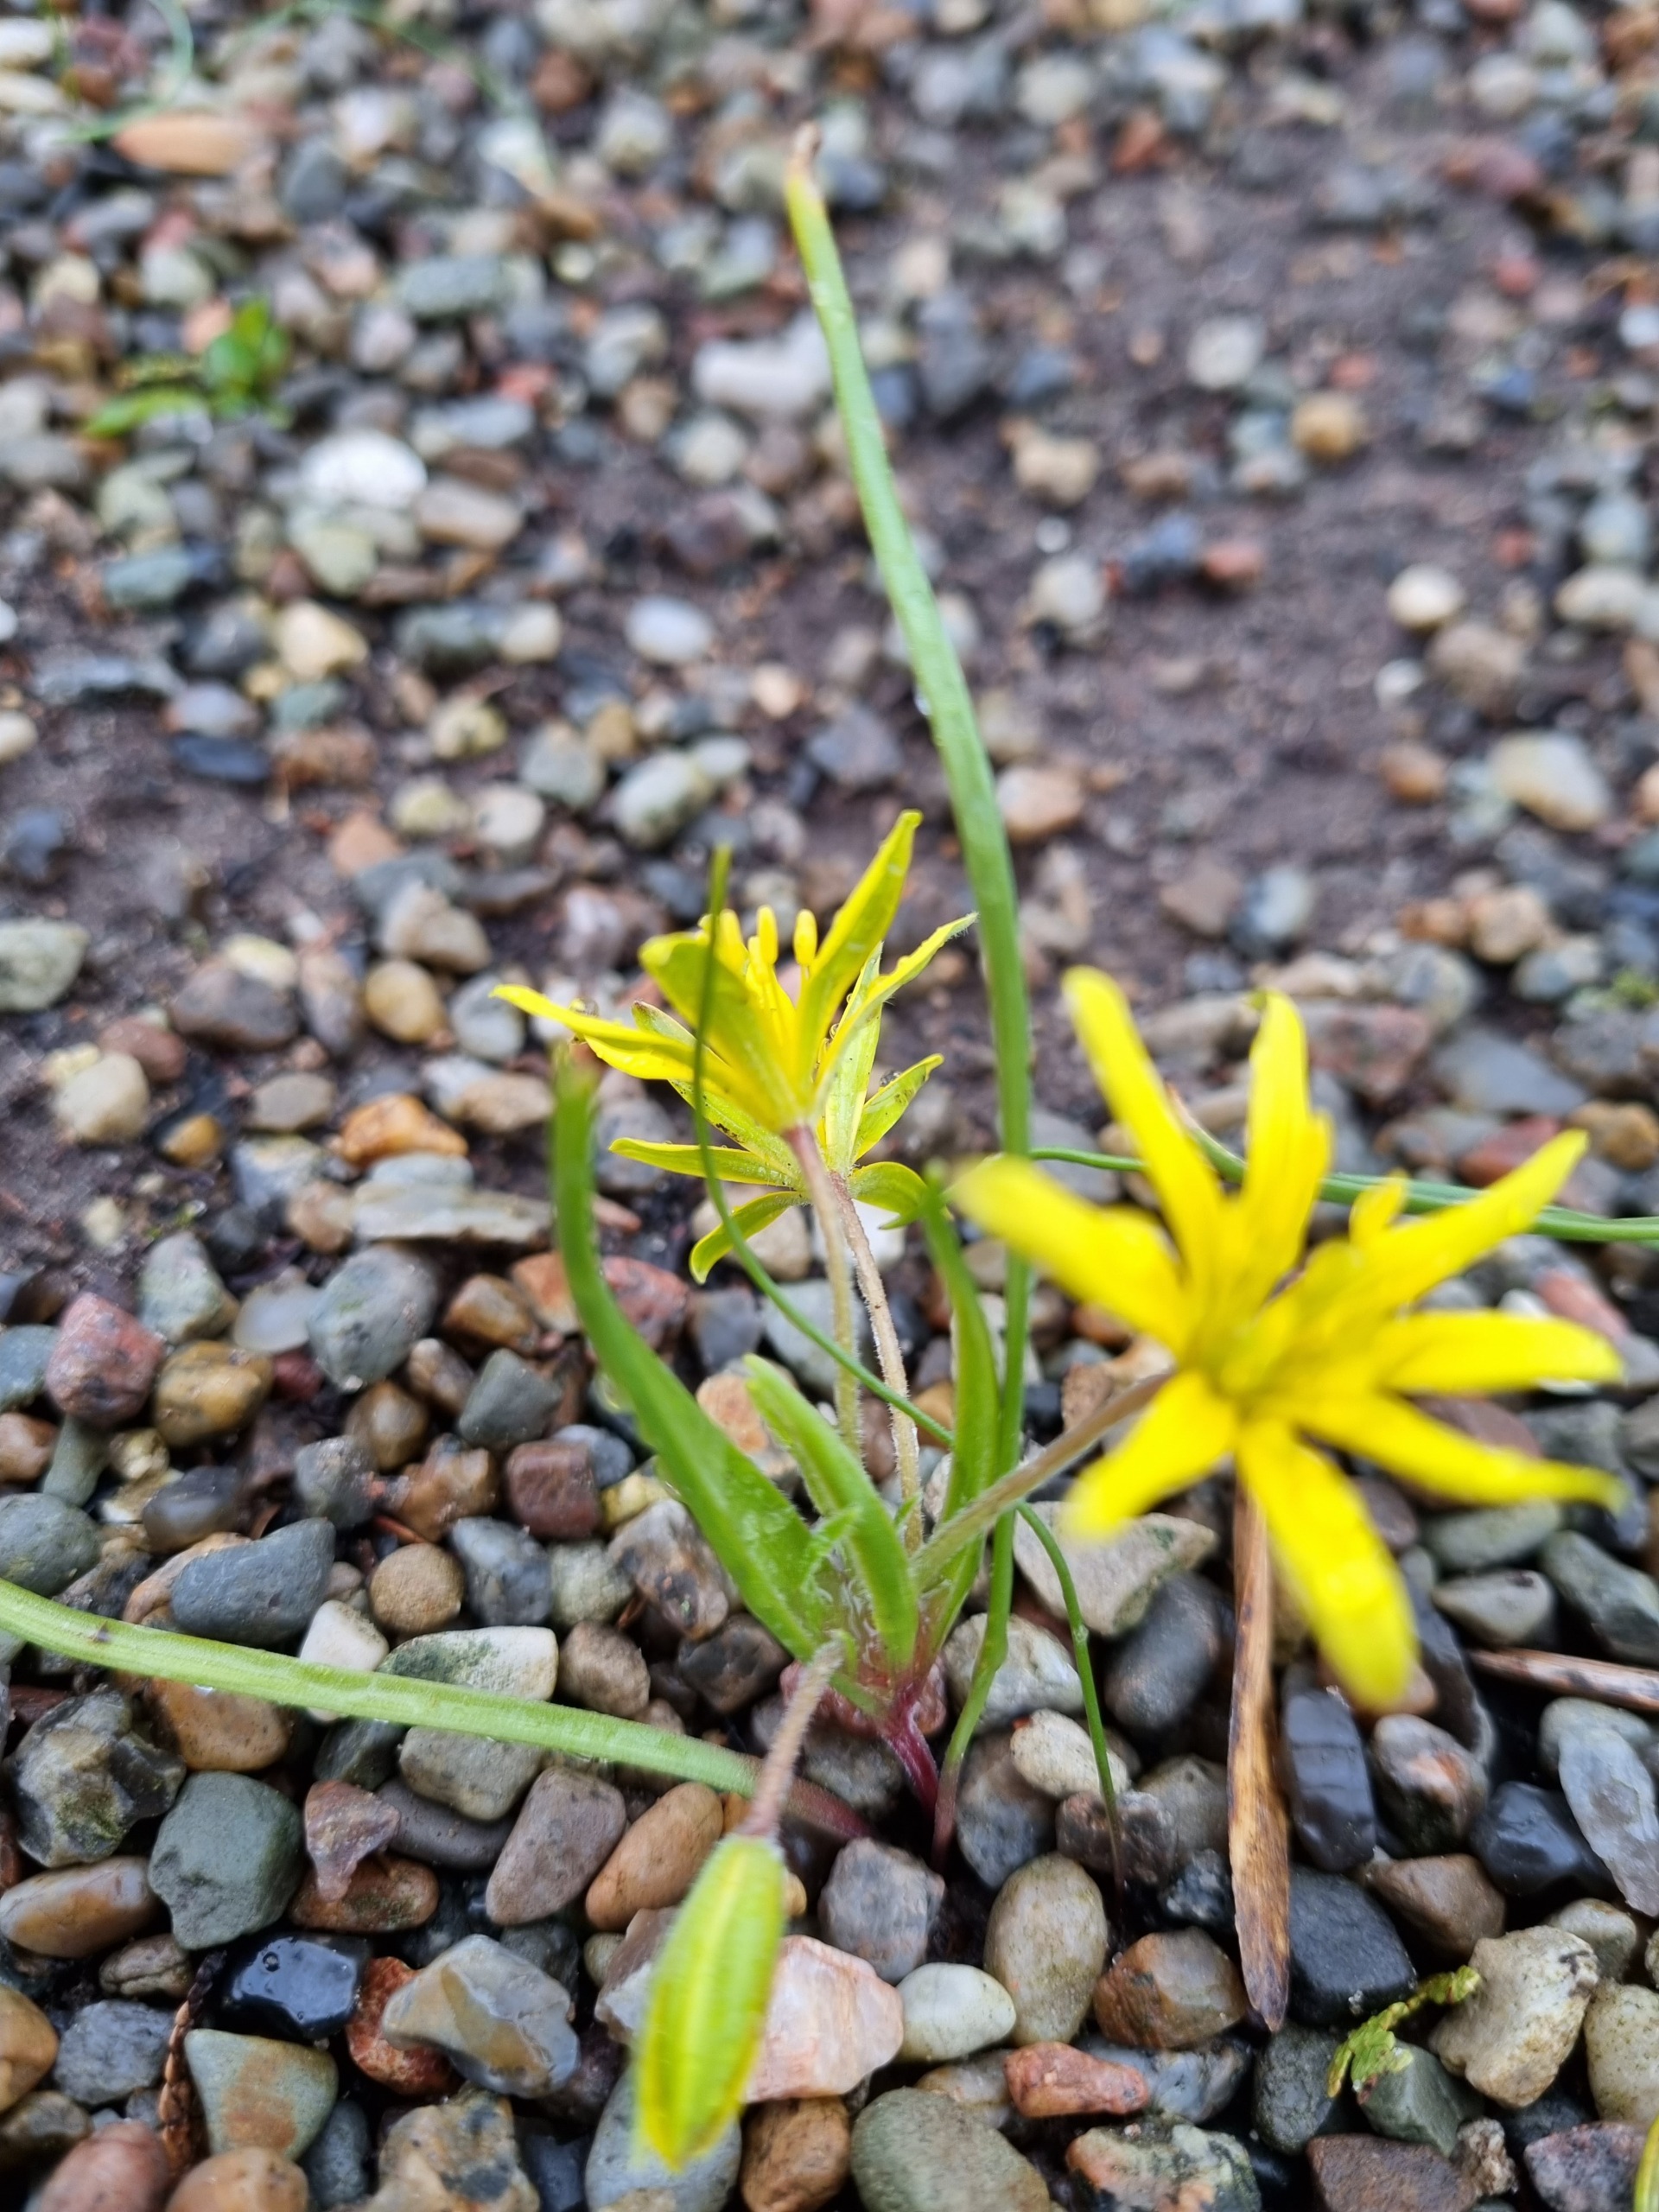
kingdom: Plantae
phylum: Tracheophyta
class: Liliopsida
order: Liliales
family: Liliaceae
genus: Gagea
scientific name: Gagea villosa
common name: Ager-guldstjerne
